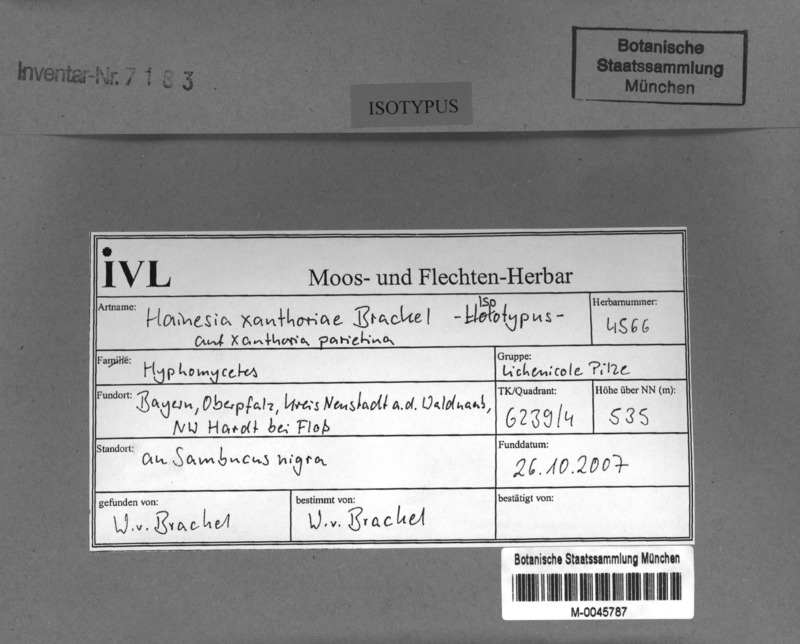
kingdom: Fungi
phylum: Ascomycota
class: Lecanoromycetes
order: Teloschistales
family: Teloschistaceae
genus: Xanthoria
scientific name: Xanthoria parietina
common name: Common orange lichen
